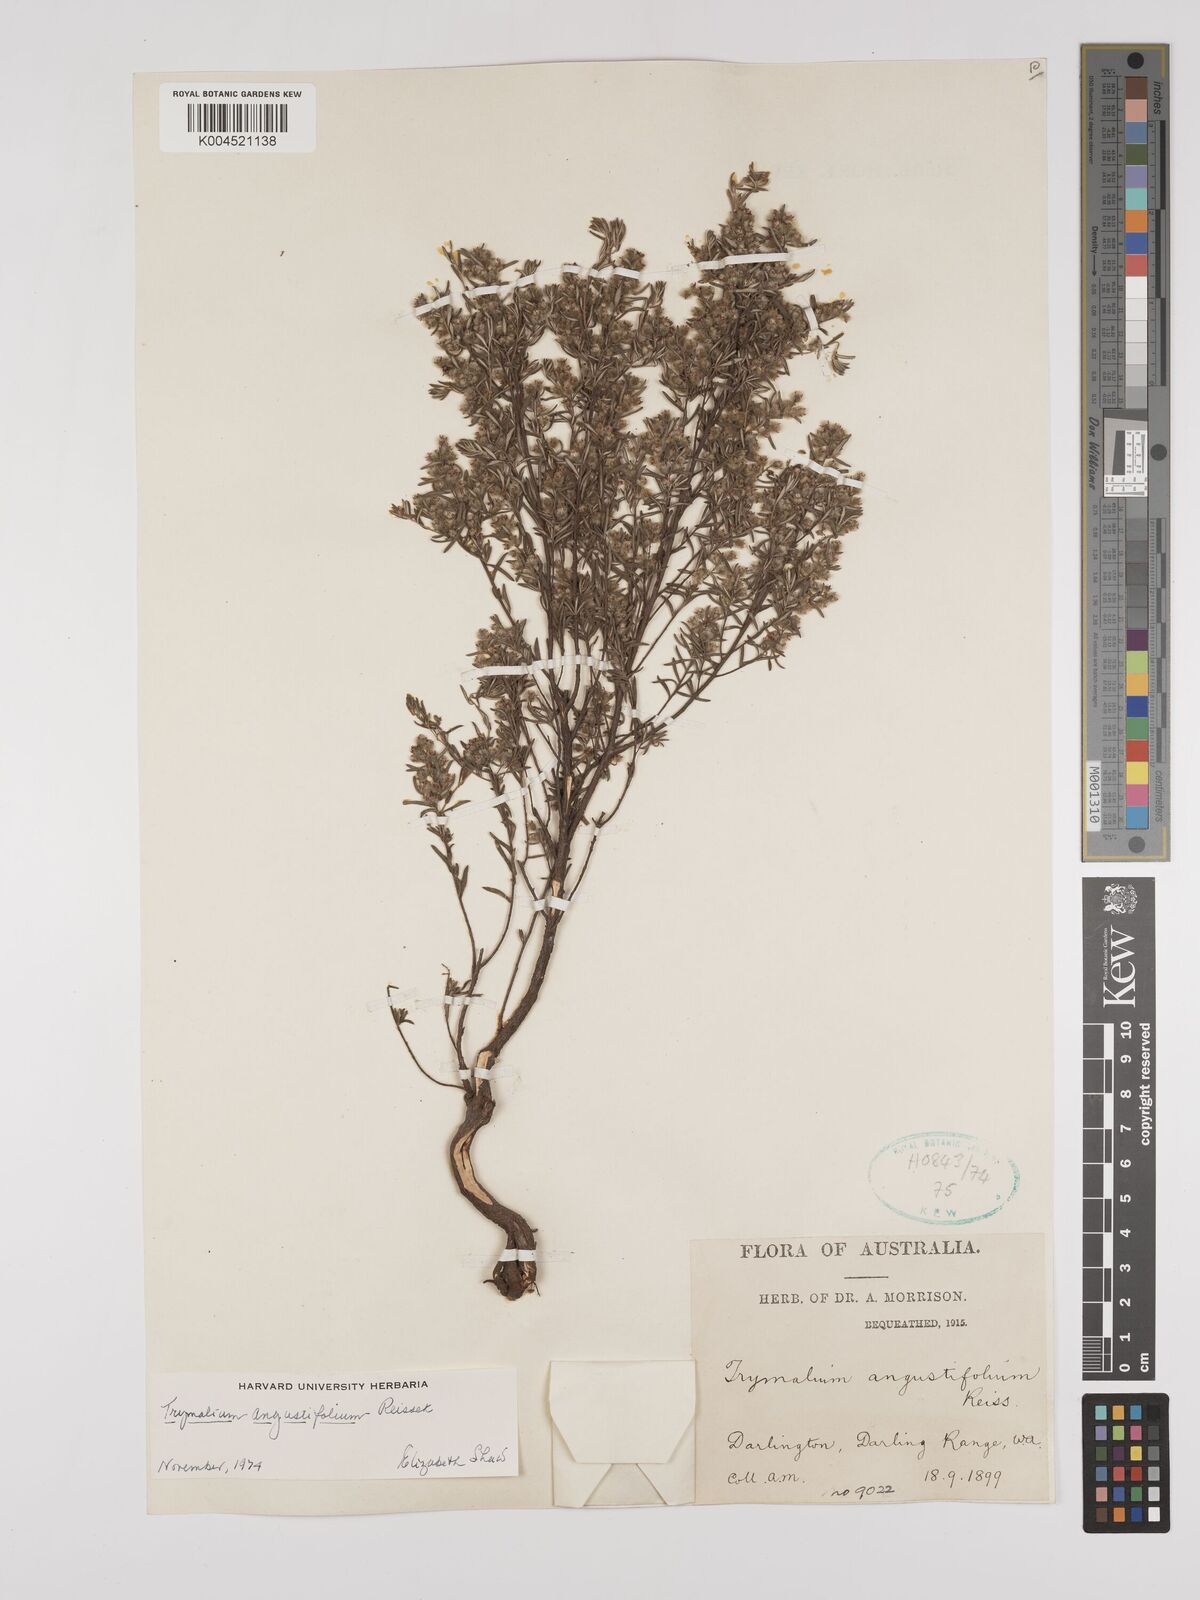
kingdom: Plantae
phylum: Tracheophyta
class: Magnoliopsida
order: Rosales
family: Rhamnaceae
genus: Trymalium
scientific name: Trymalium angustifolium
